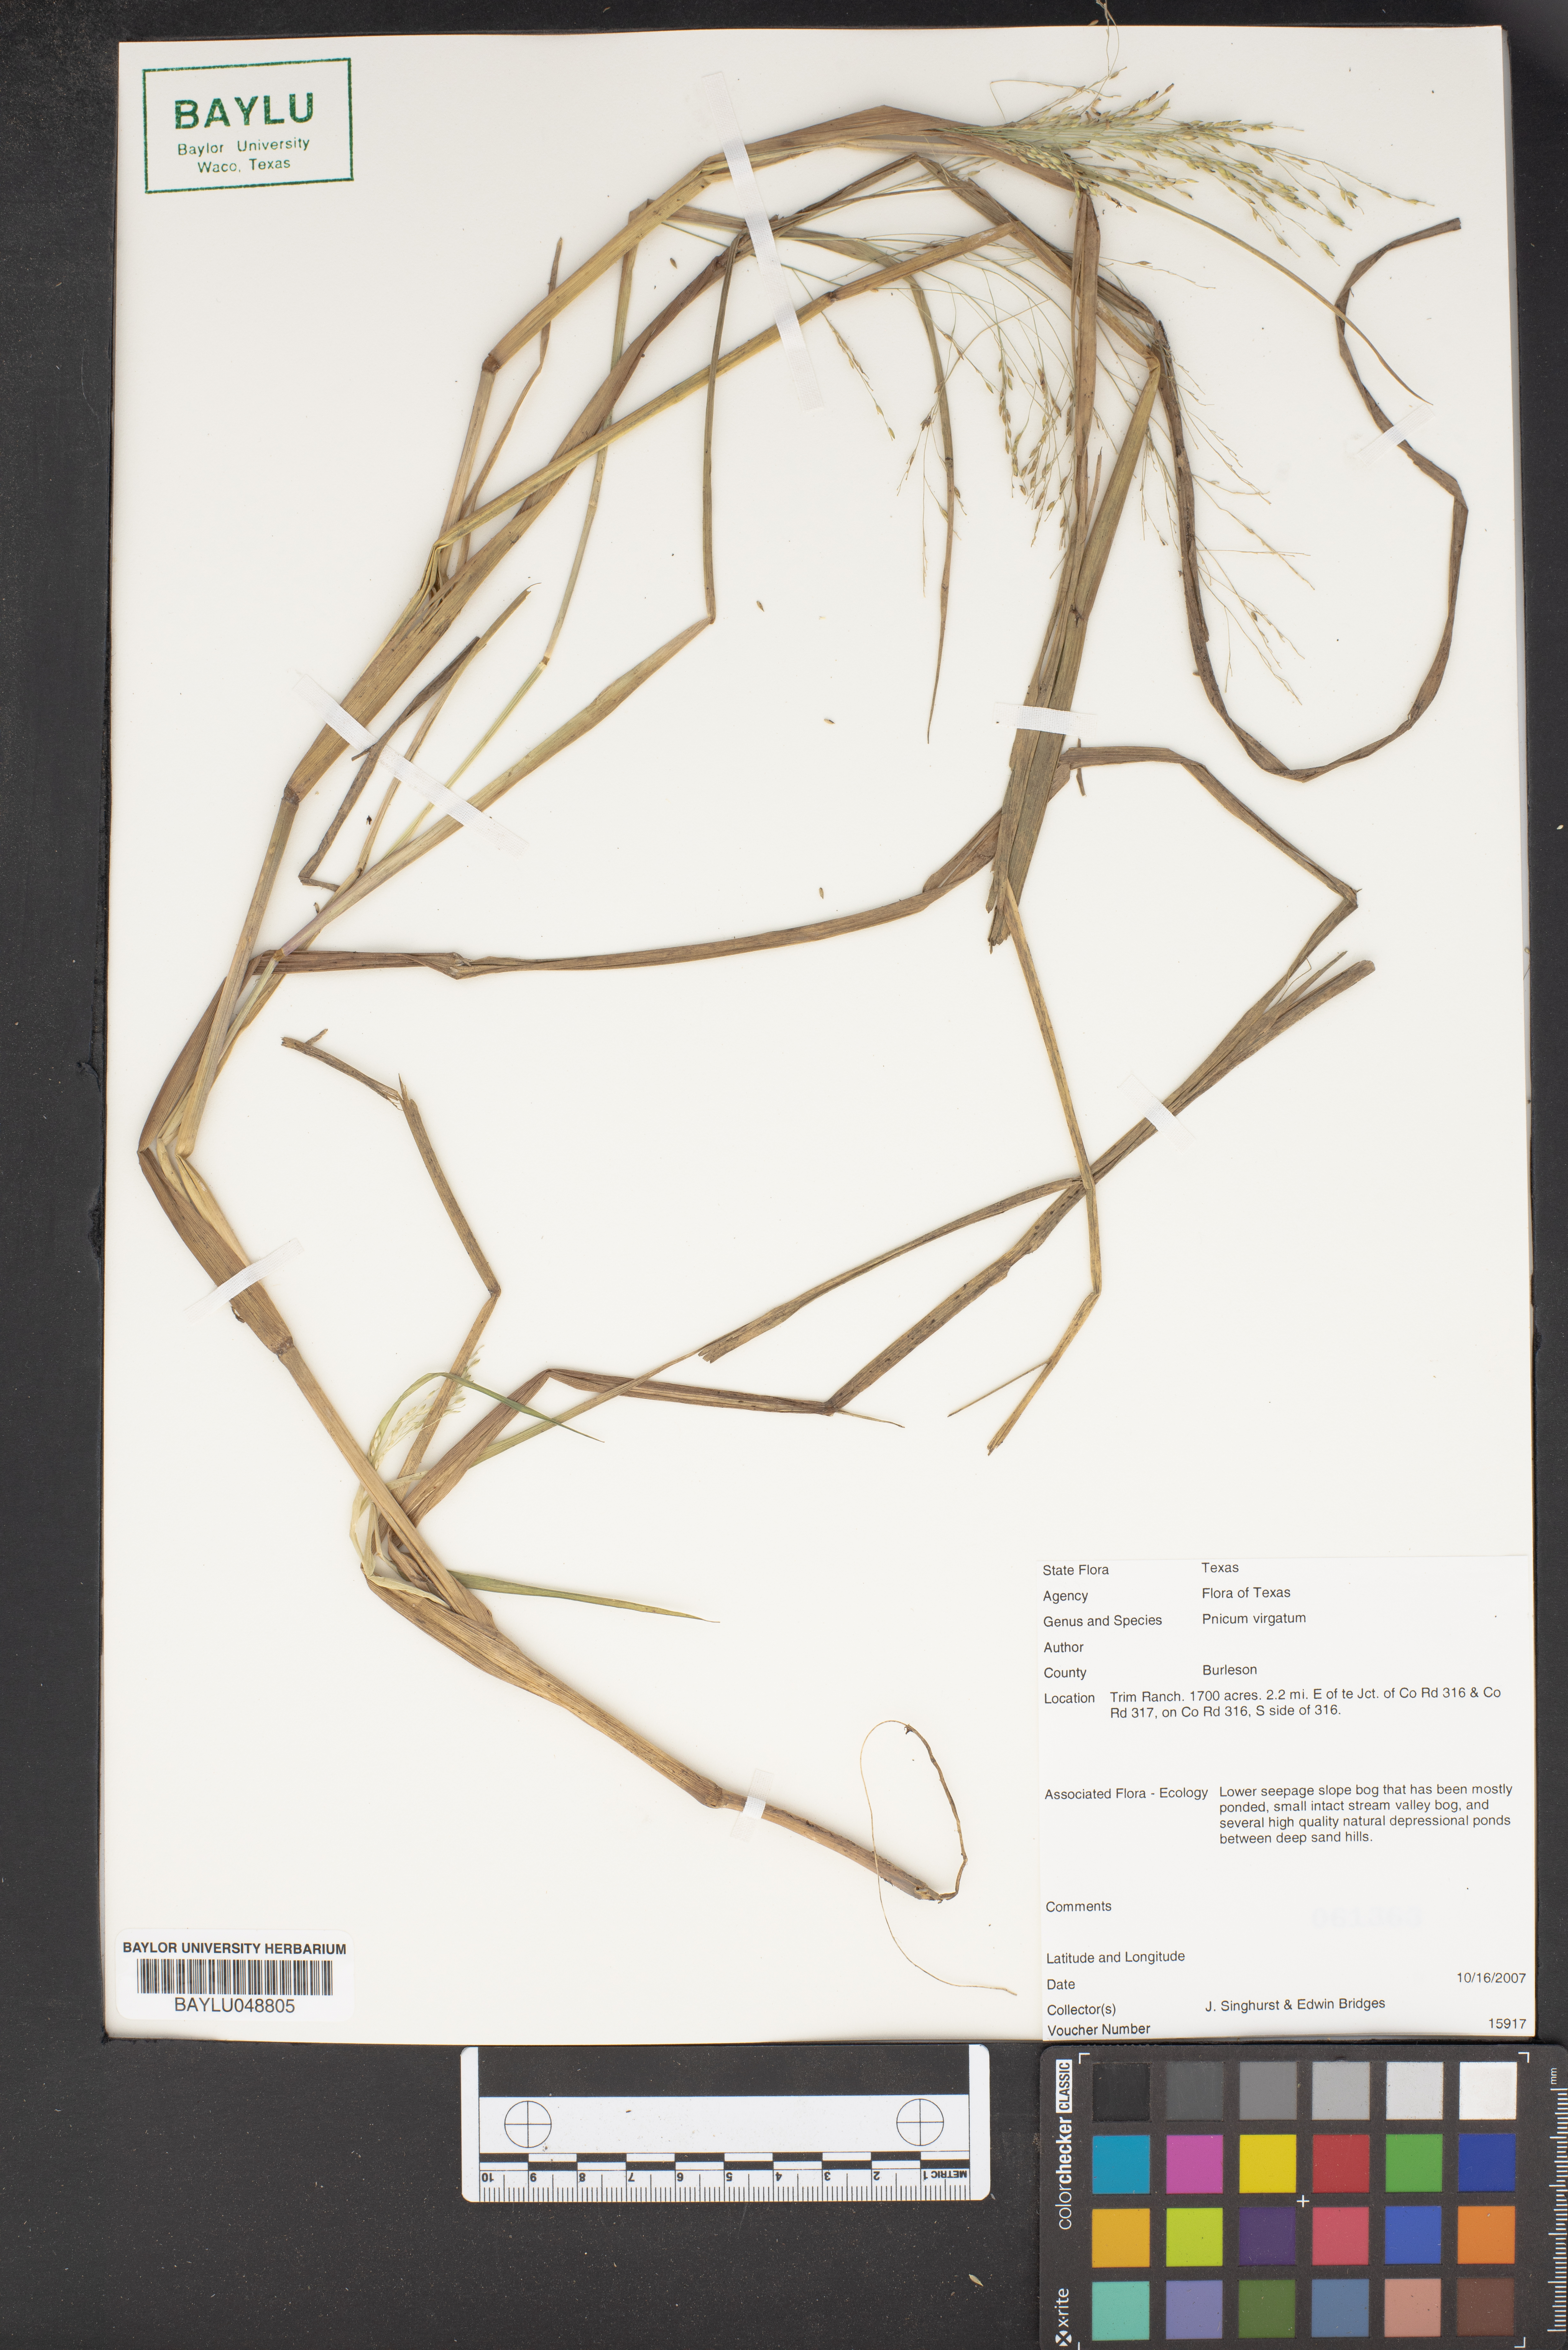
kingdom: Plantae
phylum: Tracheophyta
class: Liliopsida
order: Poales
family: Poaceae
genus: Panicum
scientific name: Panicum virgatum
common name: Switchgrass
